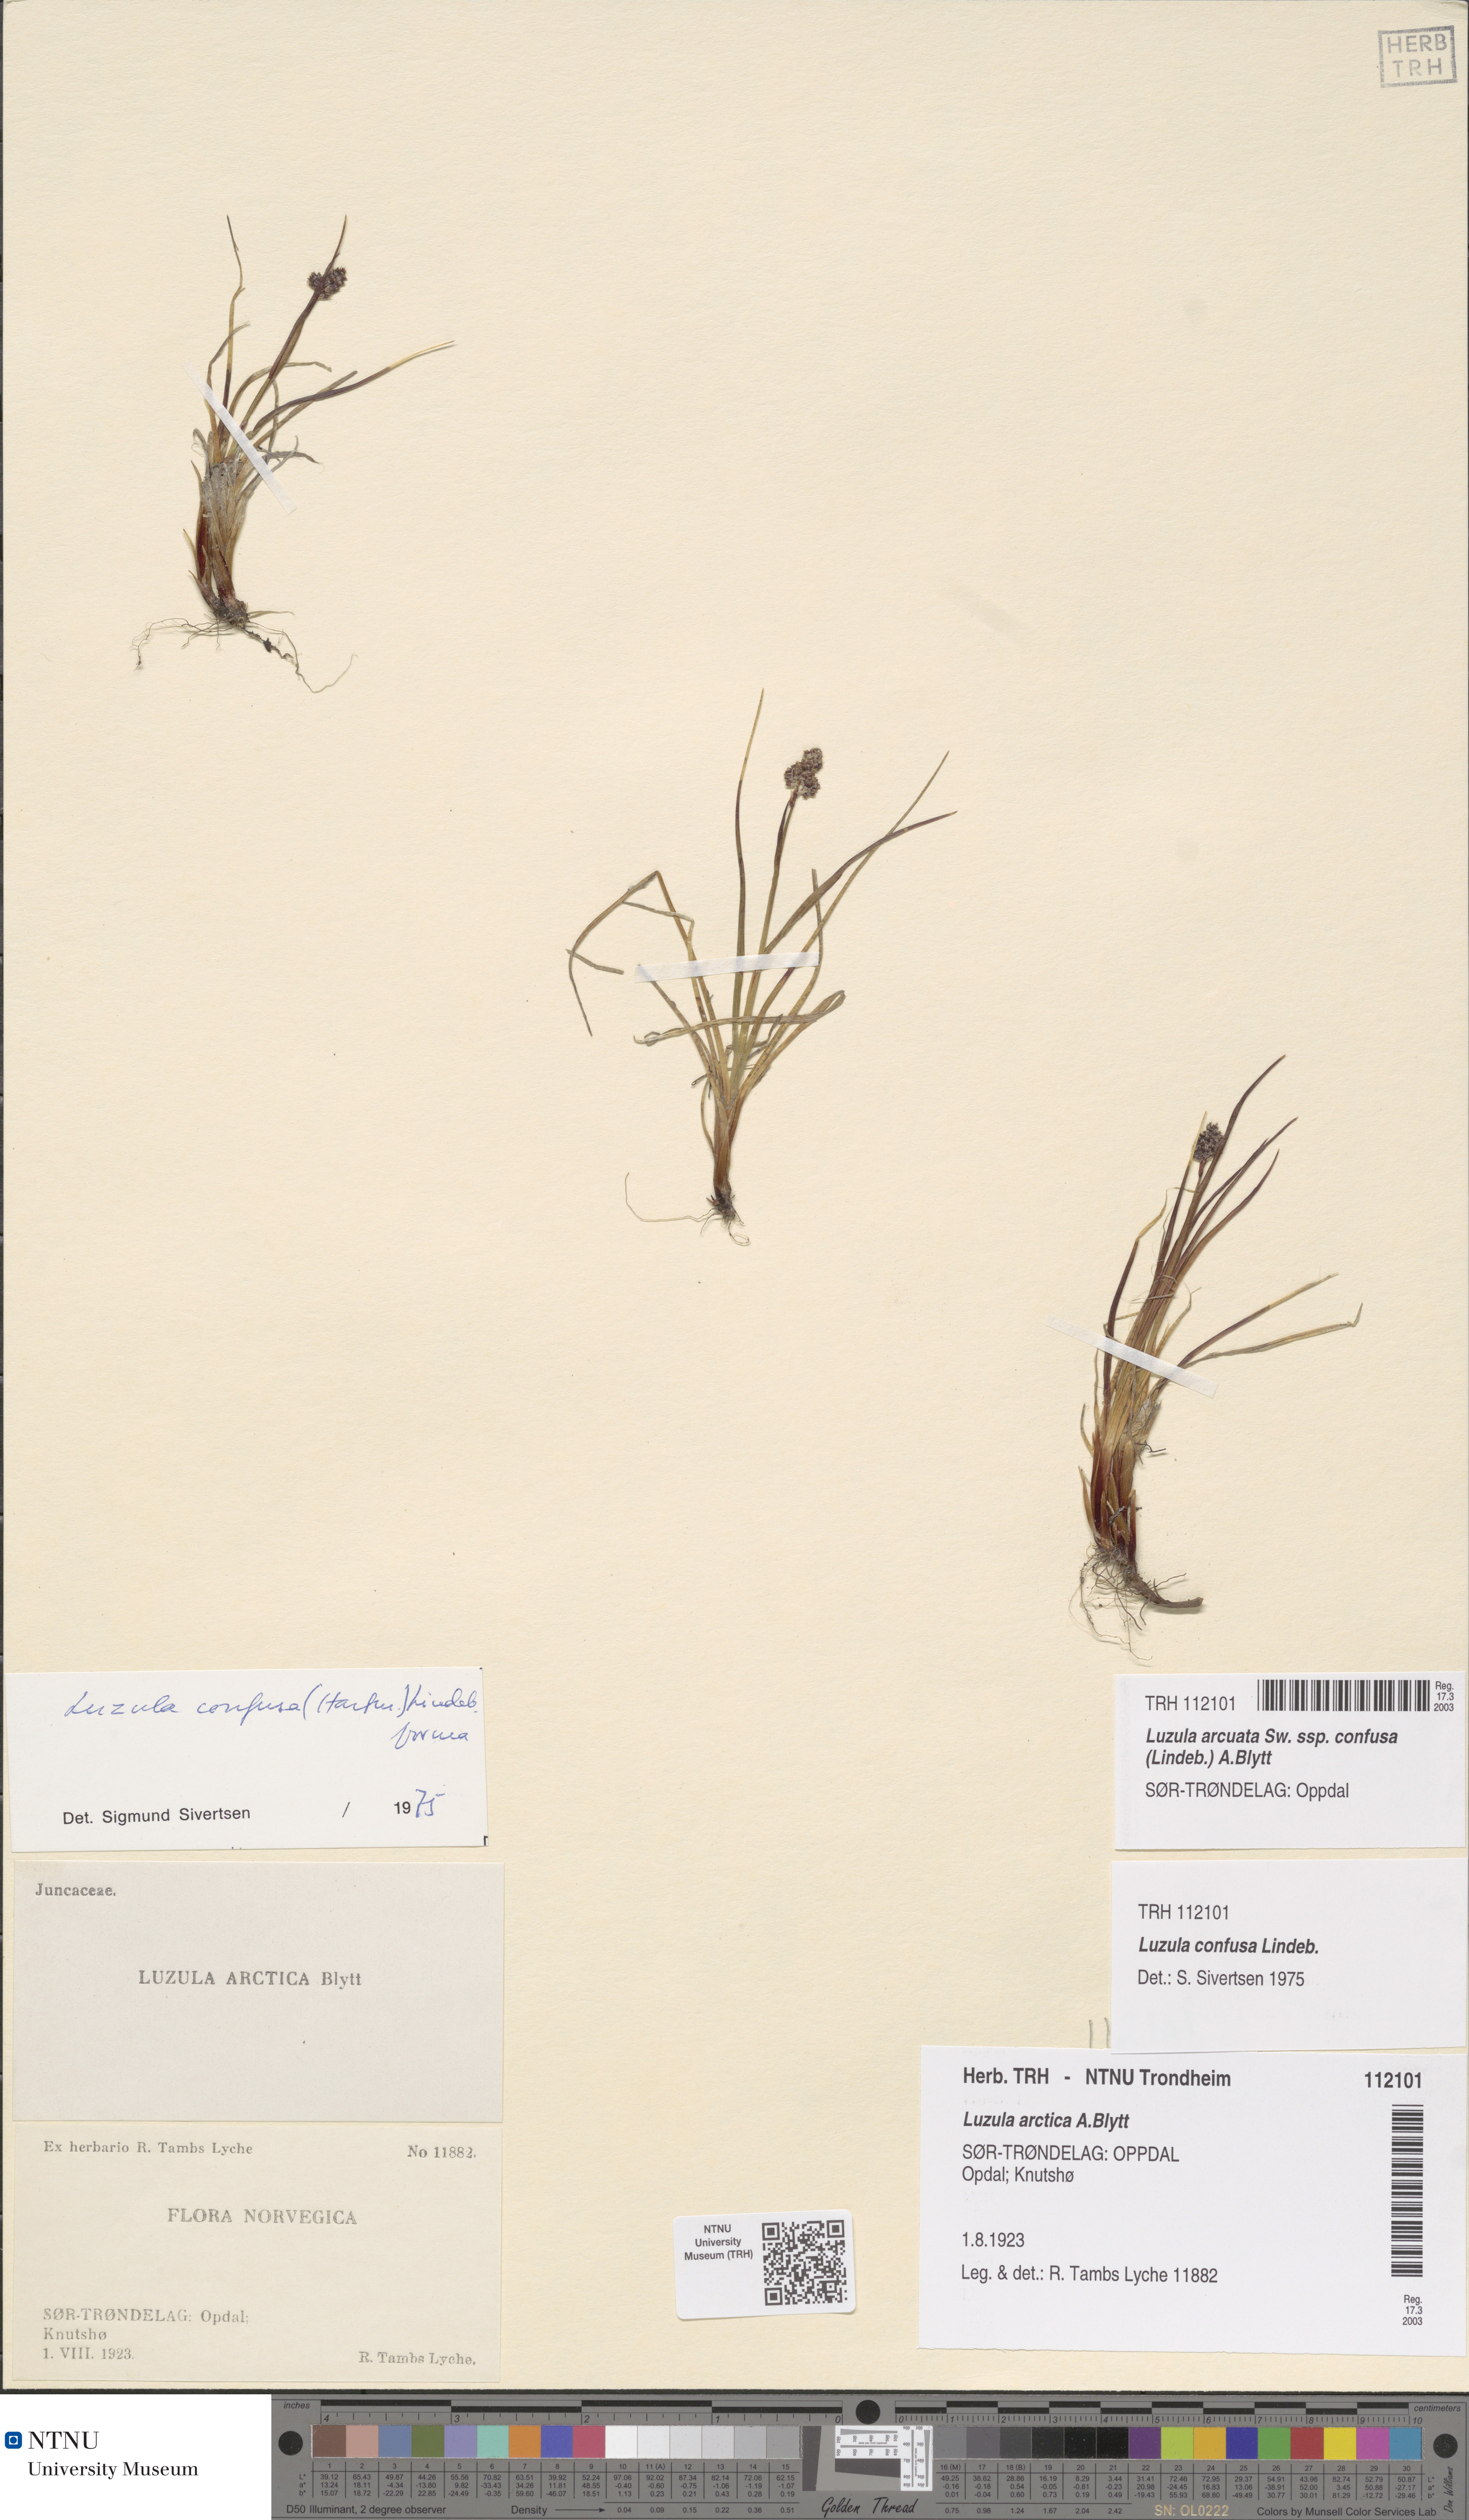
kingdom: Plantae
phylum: Tracheophyta
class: Liliopsida
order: Poales
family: Juncaceae
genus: Luzula
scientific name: Luzula confusa
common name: Northern wood rush
